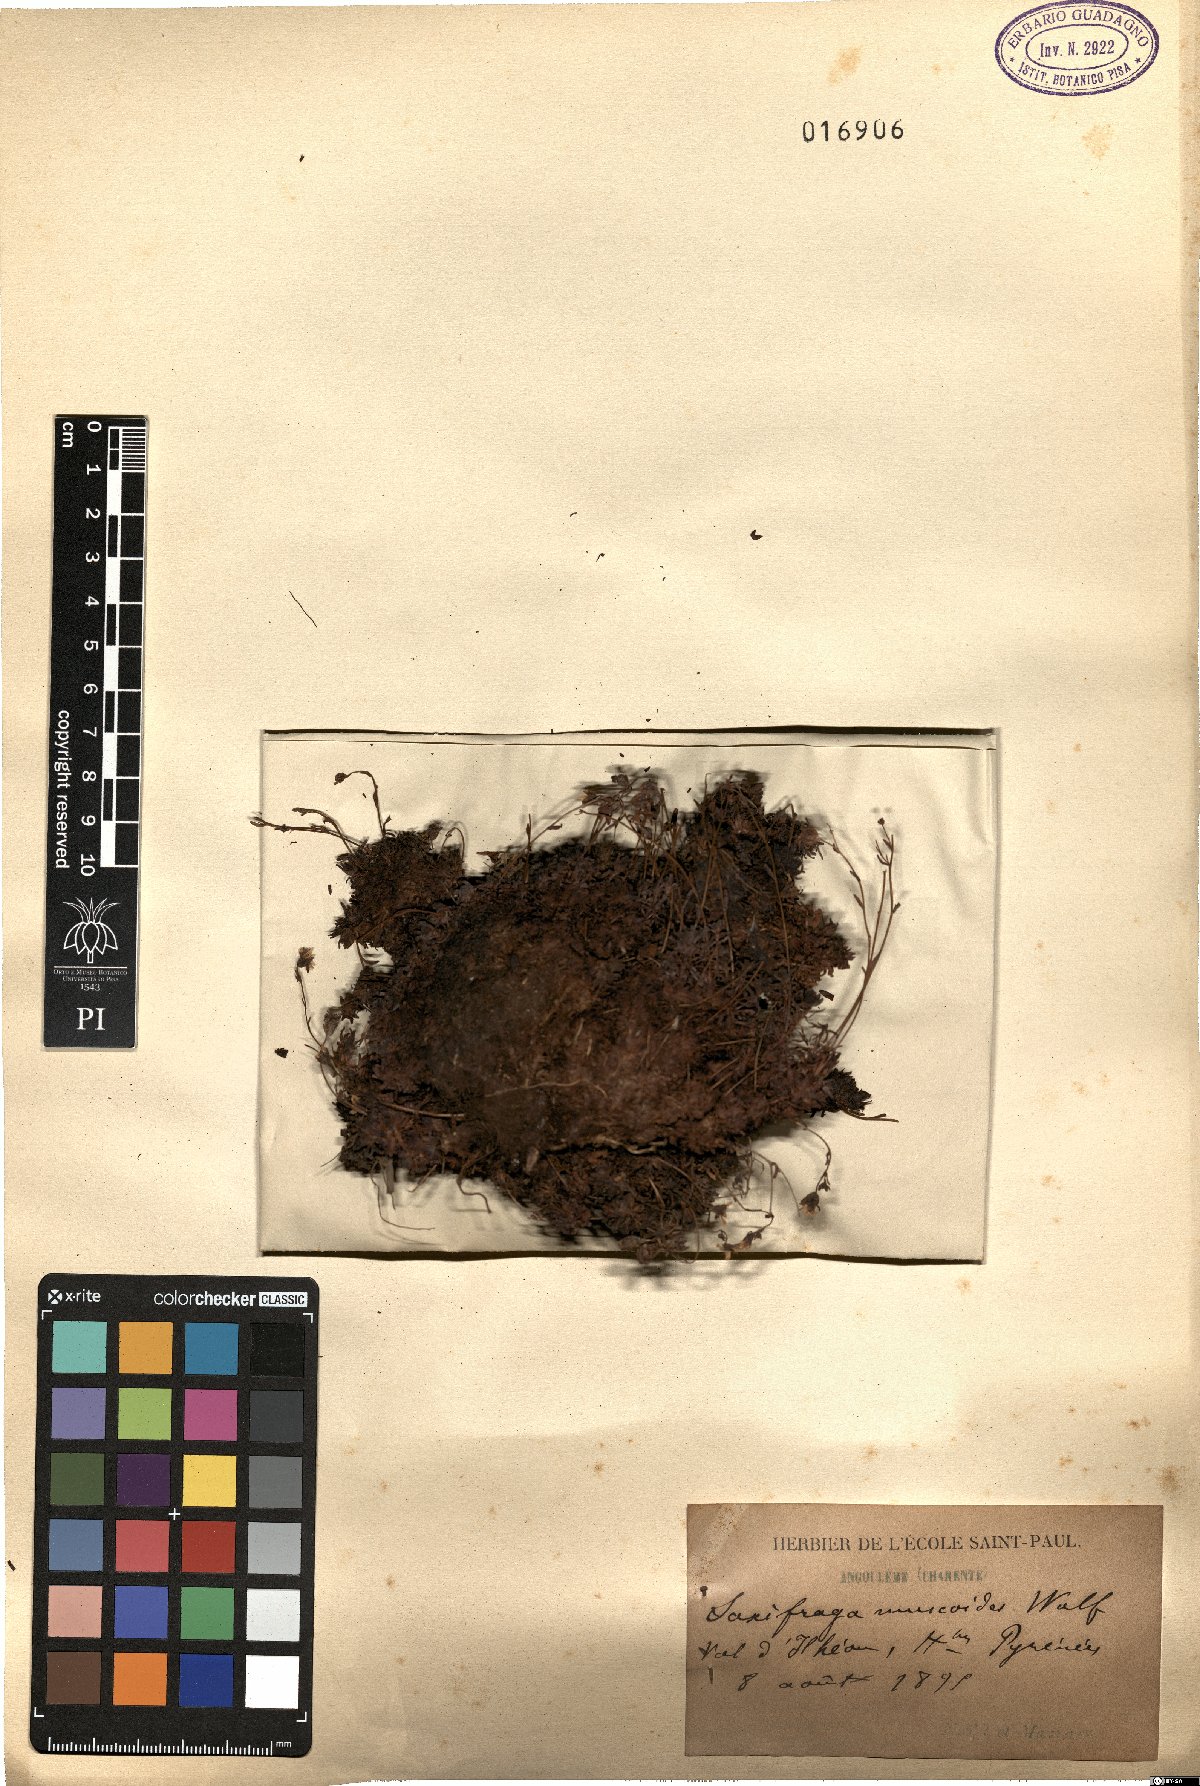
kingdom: Plantae
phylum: Tracheophyta
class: Magnoliopsida
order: Saxifragales
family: Saxifragaceae
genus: Saxifraga
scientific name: Saxifraga moschata
